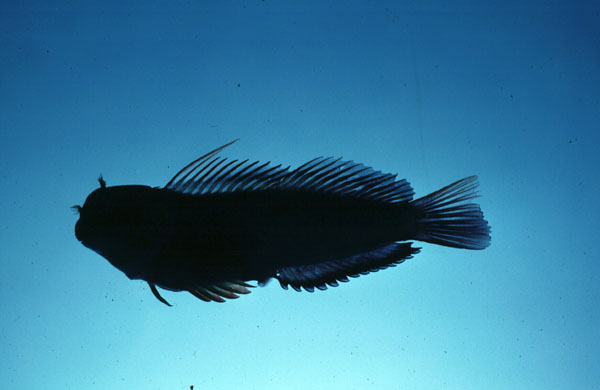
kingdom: Animalia
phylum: Chordata
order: Perciformes
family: Blenniidae
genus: Cirripectes
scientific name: Cirripectes randalli
